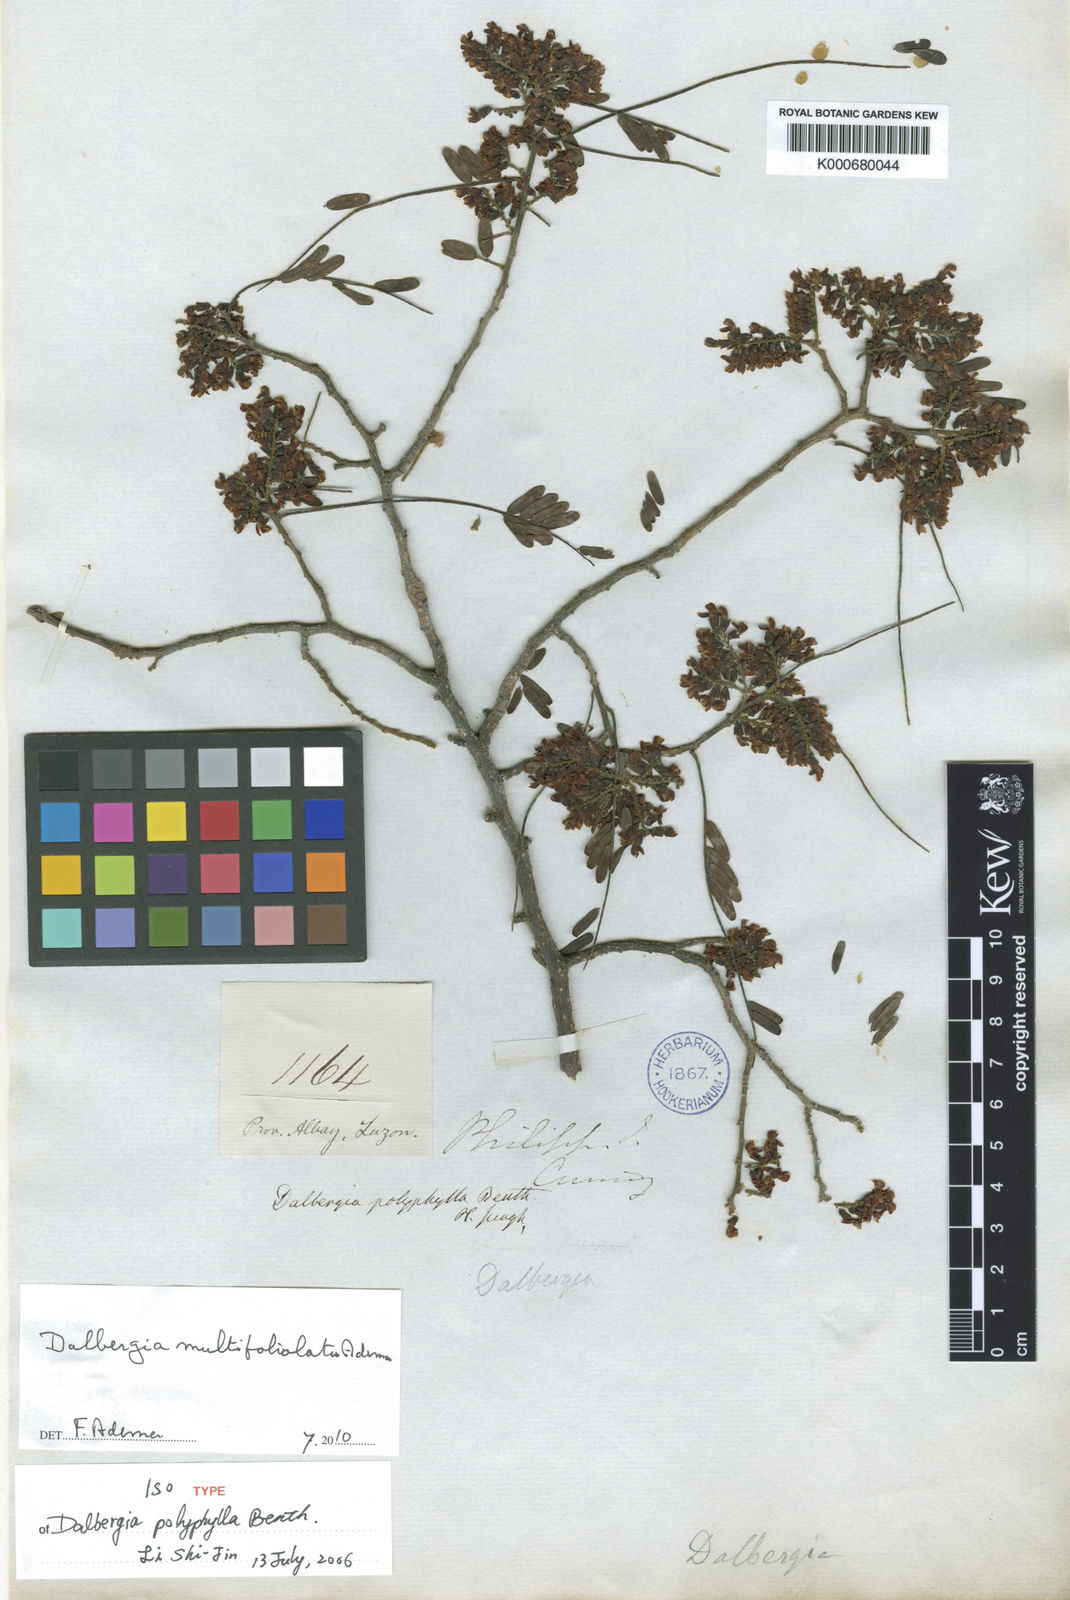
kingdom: Plantae
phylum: Tracheophyta
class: Magnoliopsida
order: Fabales
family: Fabaceae
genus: Dalbergia
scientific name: Dalbergia polyphylla
